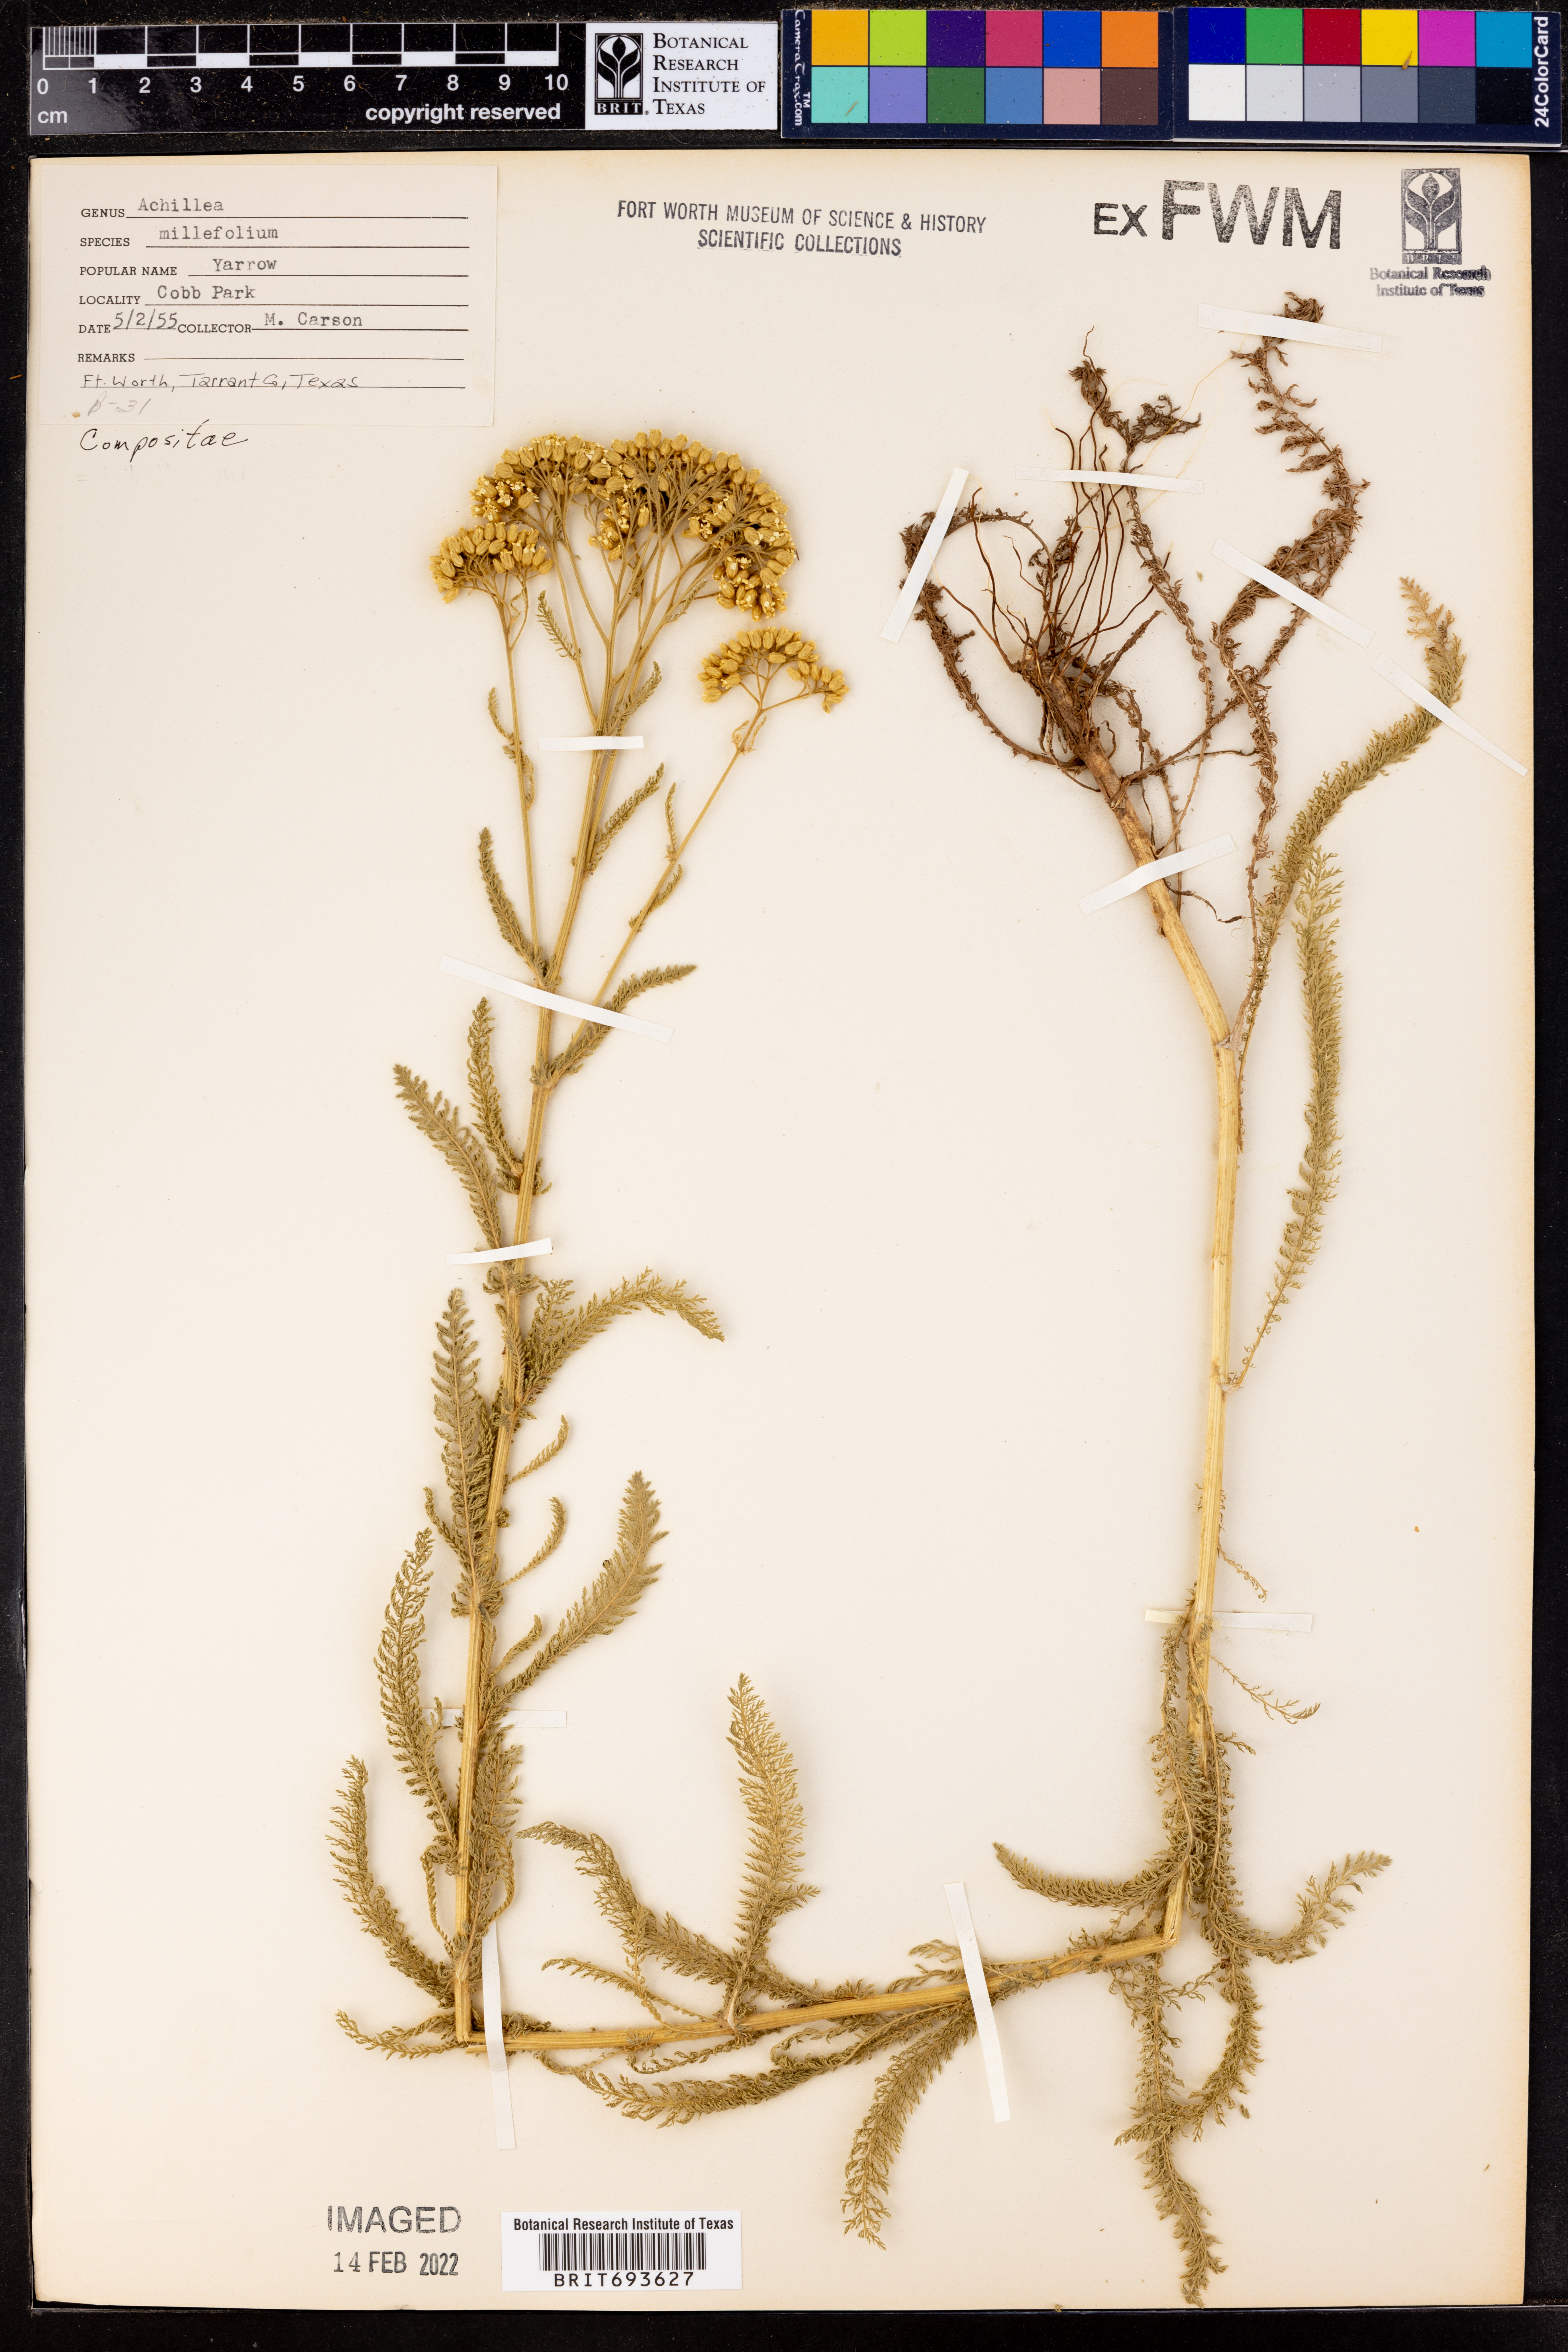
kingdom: Plantae
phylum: Tracheophyta
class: Magnoliopsida
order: Asterales
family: Asteraceae
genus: Achillea
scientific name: Achillea millefolium
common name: Yarrow
